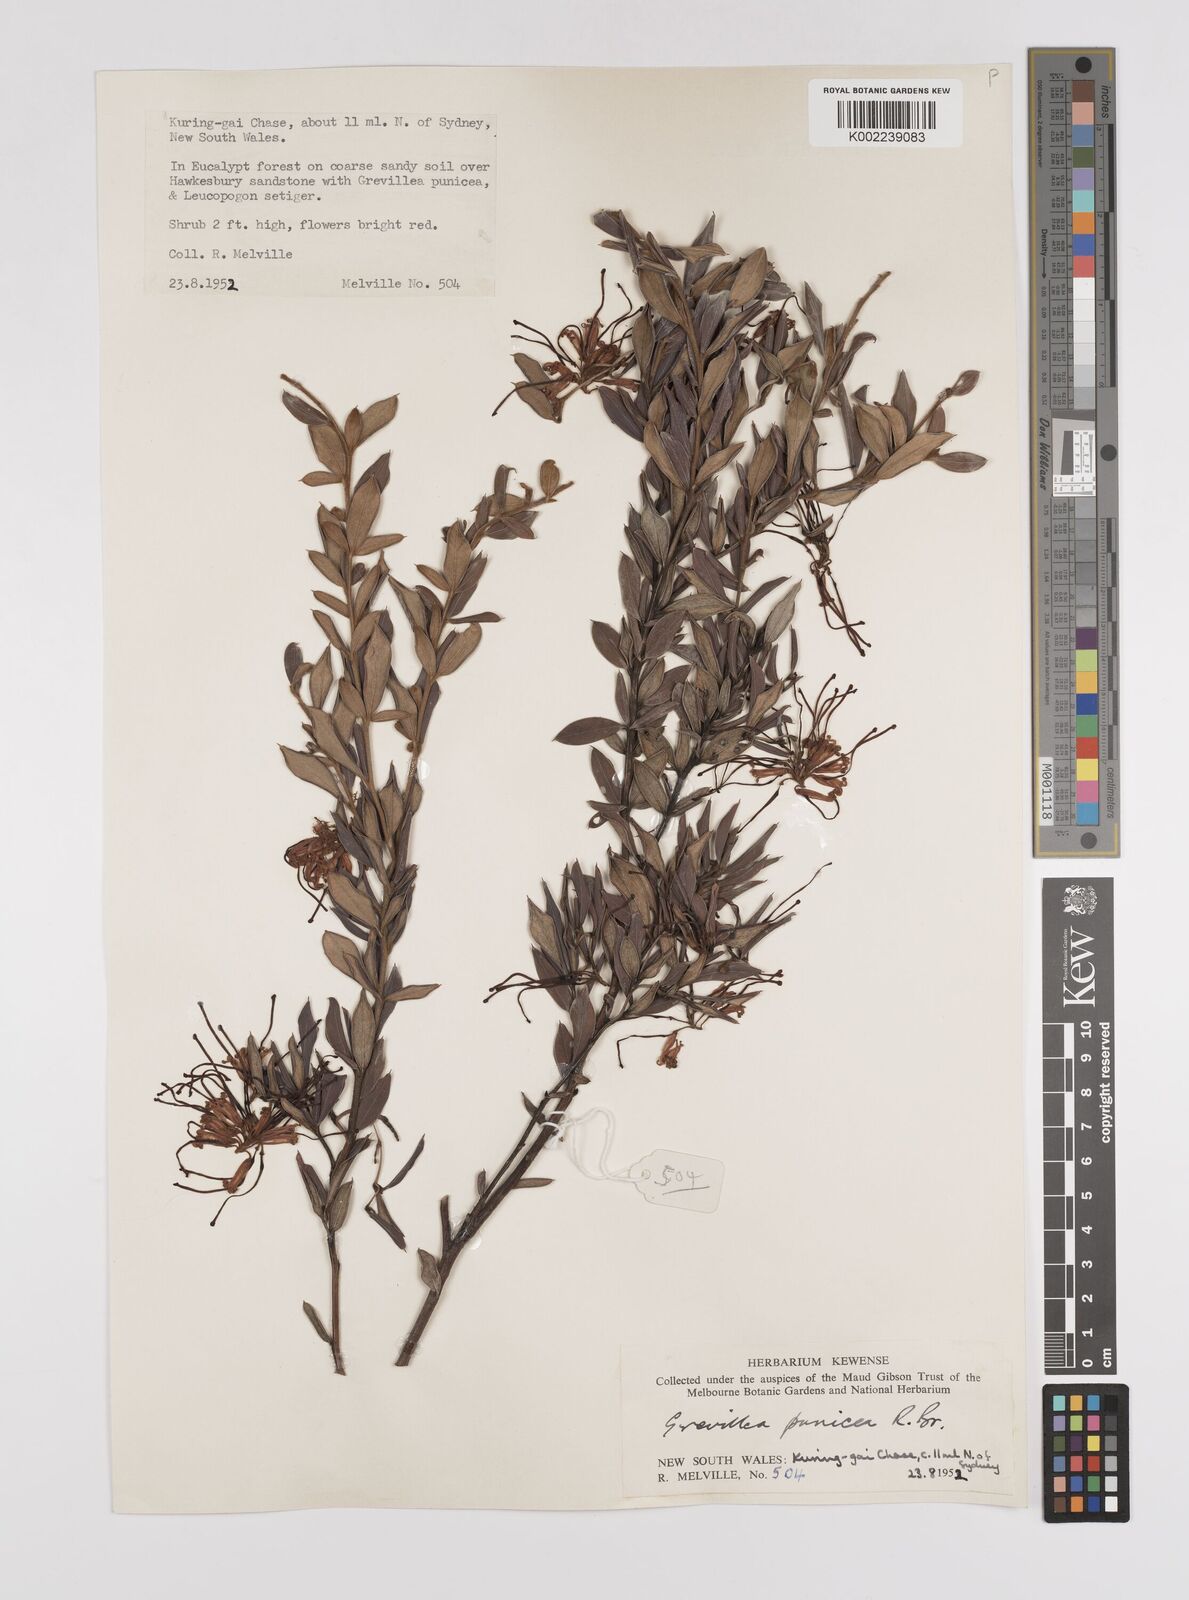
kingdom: Plantae
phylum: Tracheophyta
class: Magnoliopsida
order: Proteales
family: Proteaceae
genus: Grevillea
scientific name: Grevillea speciosa
